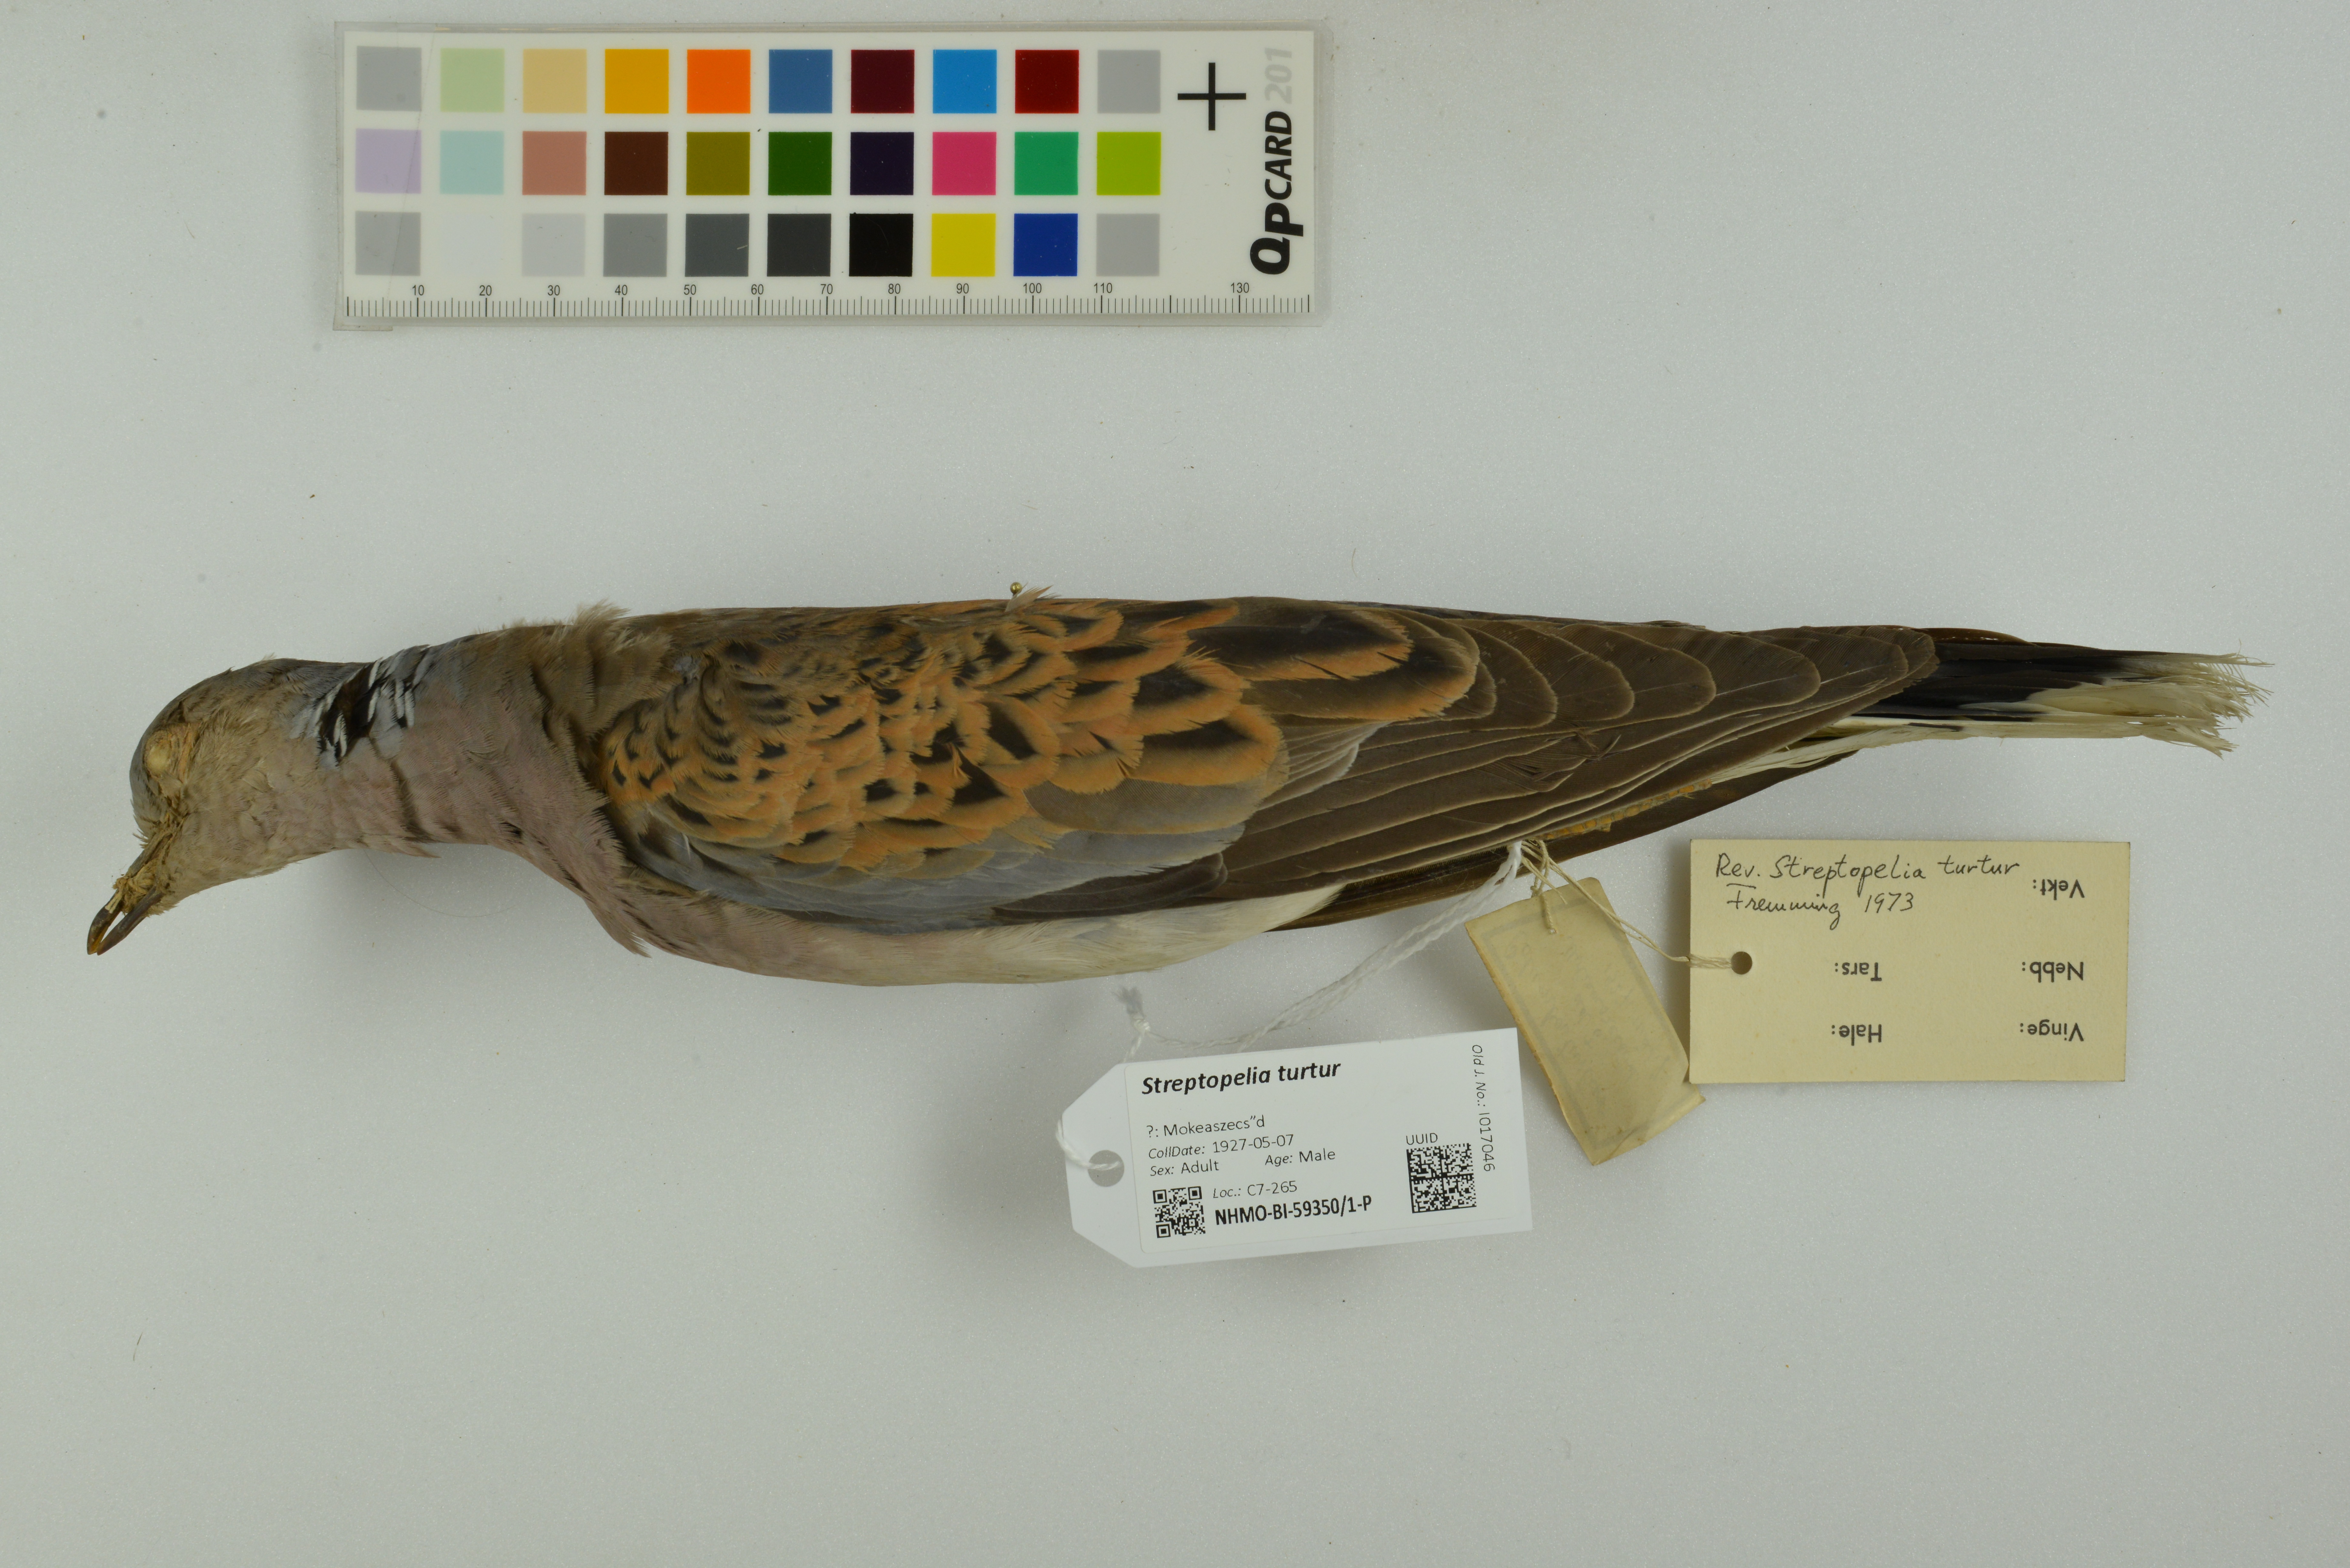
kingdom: Animalia
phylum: Chordata
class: Aves
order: Columbiformes
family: Columbidae
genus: Streptopelia
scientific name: Streptopelia turtur
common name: European turtle dove
